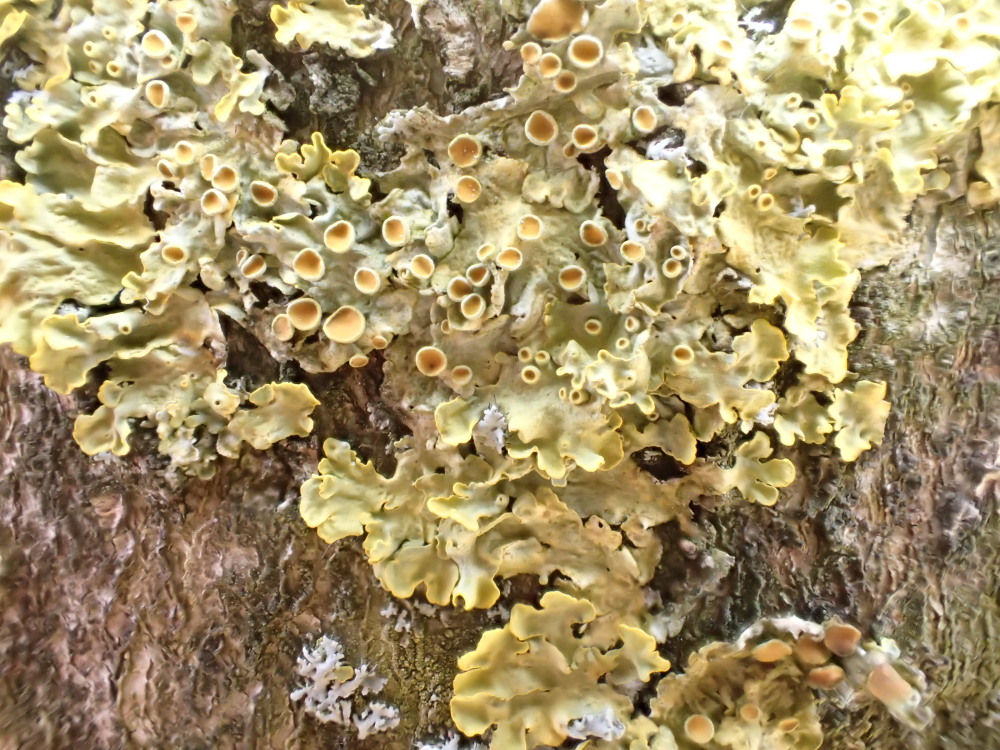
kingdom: Fungi
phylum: Ascomycota
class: Lecanoromycetes
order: Teloschistales
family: Teloschistaceae
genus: Xanthoria
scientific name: Xanthoria parietina
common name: almindelig væggelav
